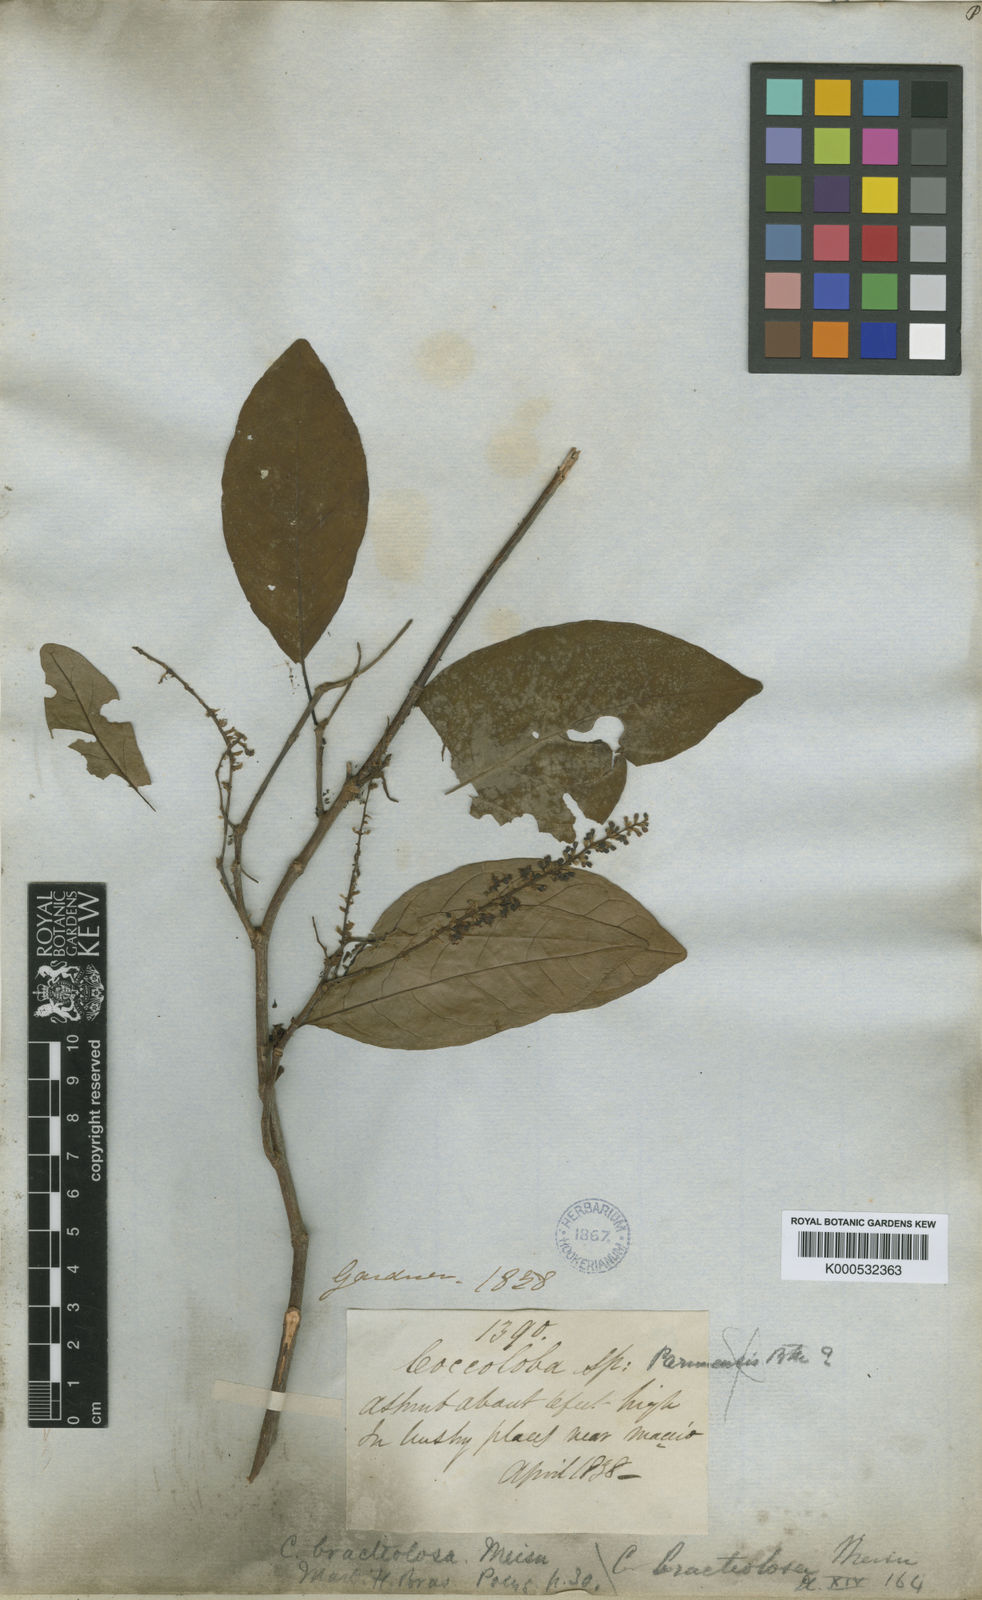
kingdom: Plantae
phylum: Tracheophyta
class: Magnoliopsida
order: Caryophyllales
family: Polygonaceae
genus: Coccoloba
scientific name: Coccoloba excelsa
